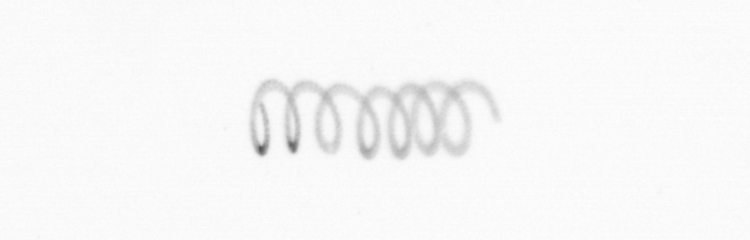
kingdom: Chromista
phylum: Ochrophyta
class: Bacillariophyceae
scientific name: Bacillariophyceae
